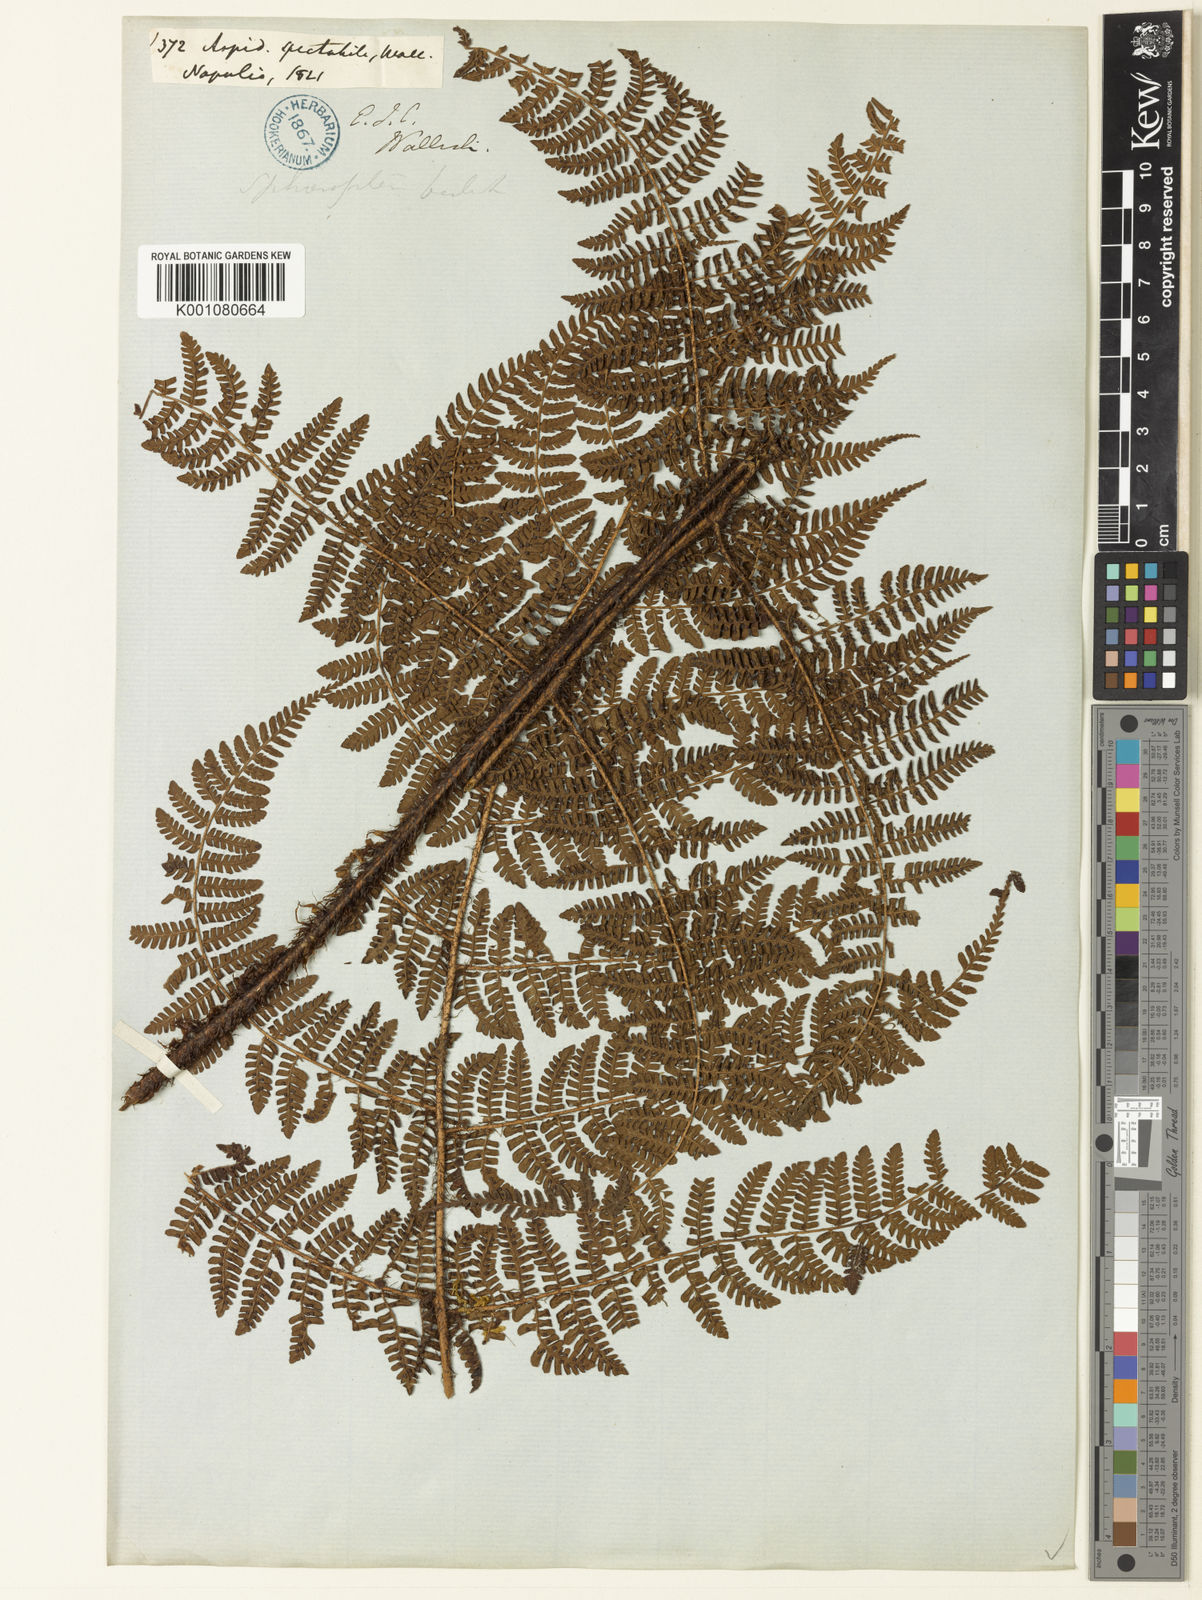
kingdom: Plantae
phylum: Tracheophyta
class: Polypodiopsida
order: Polypodiales
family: Dryopteridaceae
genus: Dryopteris
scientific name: Dryopteris peranema
